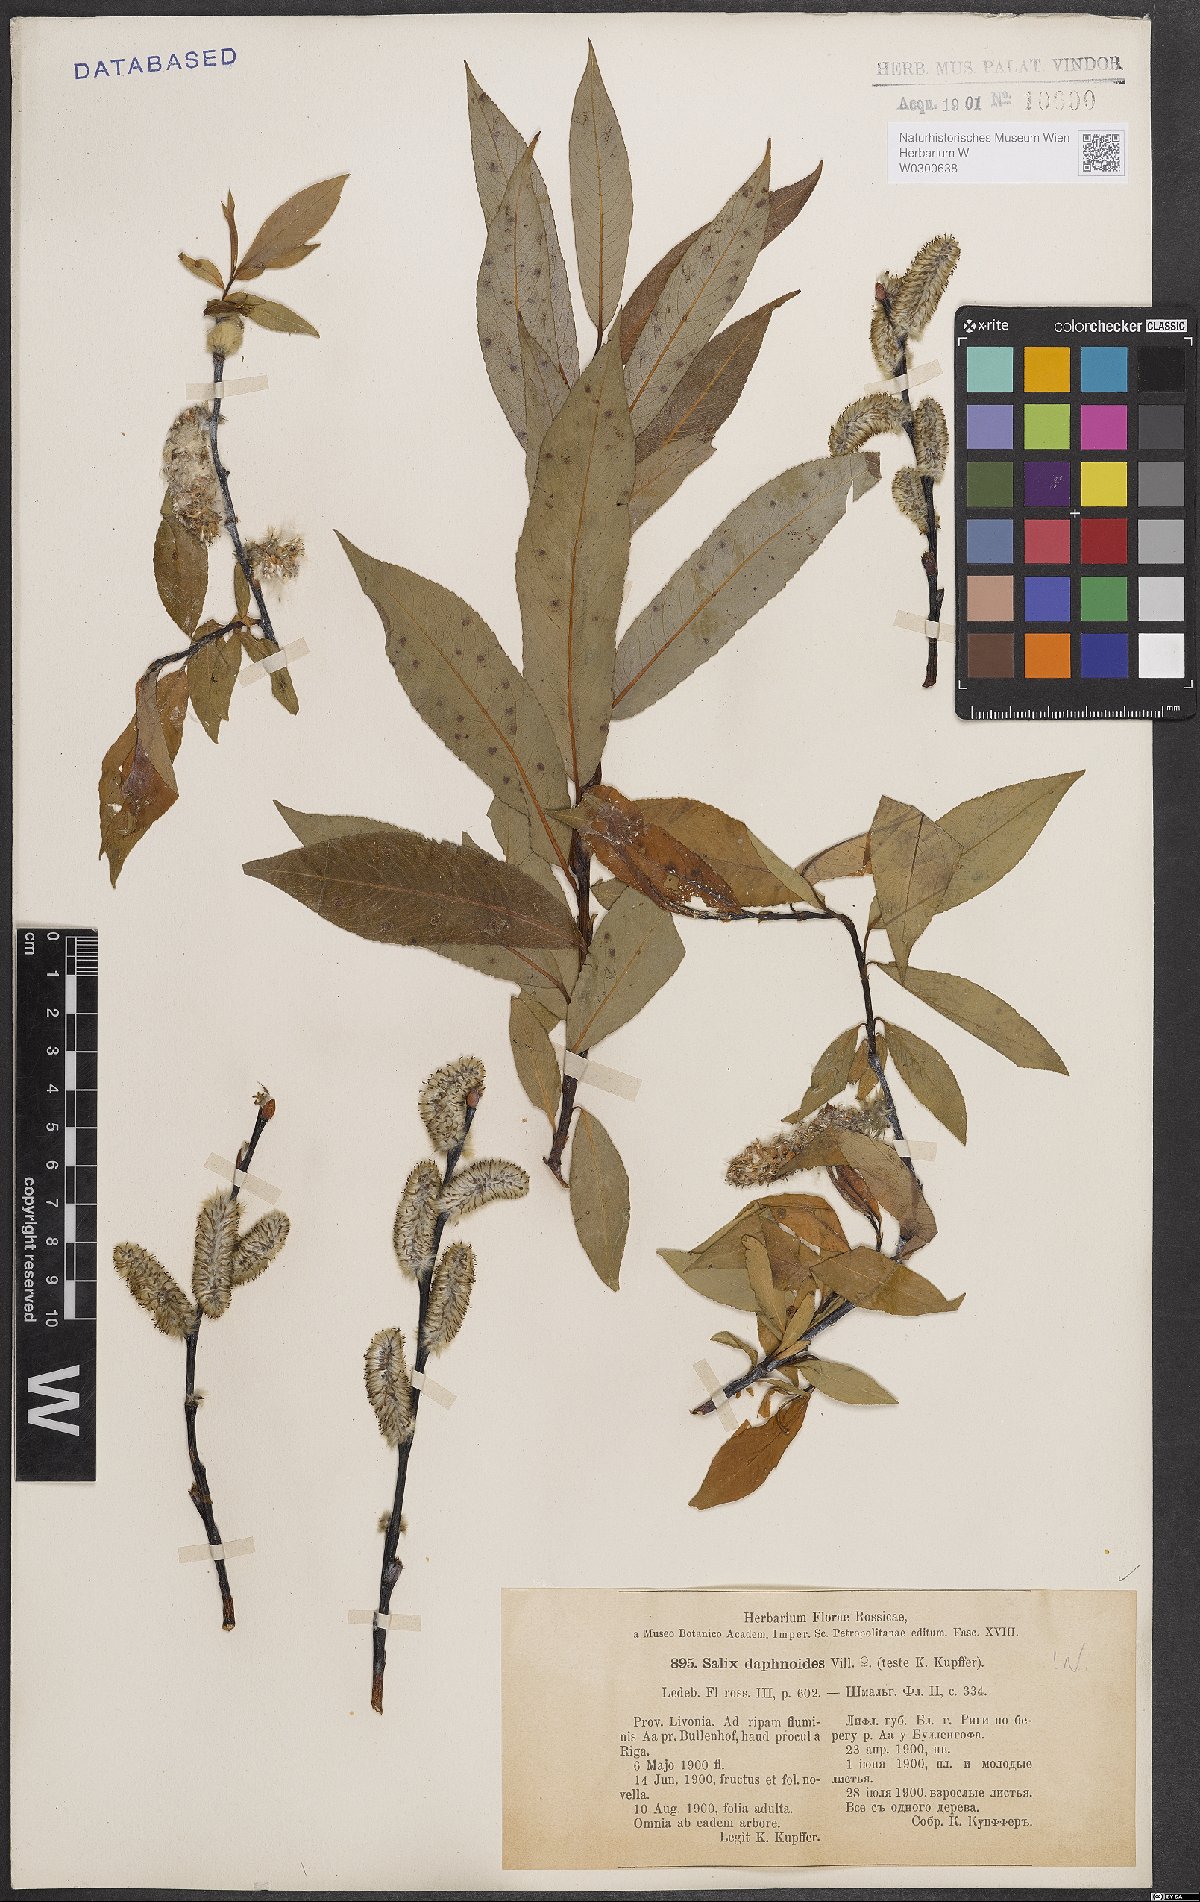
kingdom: Plantae
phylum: Tracheophyta
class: Magnoliopsida
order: Malpighiales
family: Salicaceae
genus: Salix
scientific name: Salix daphnoides
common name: European violet-willow
